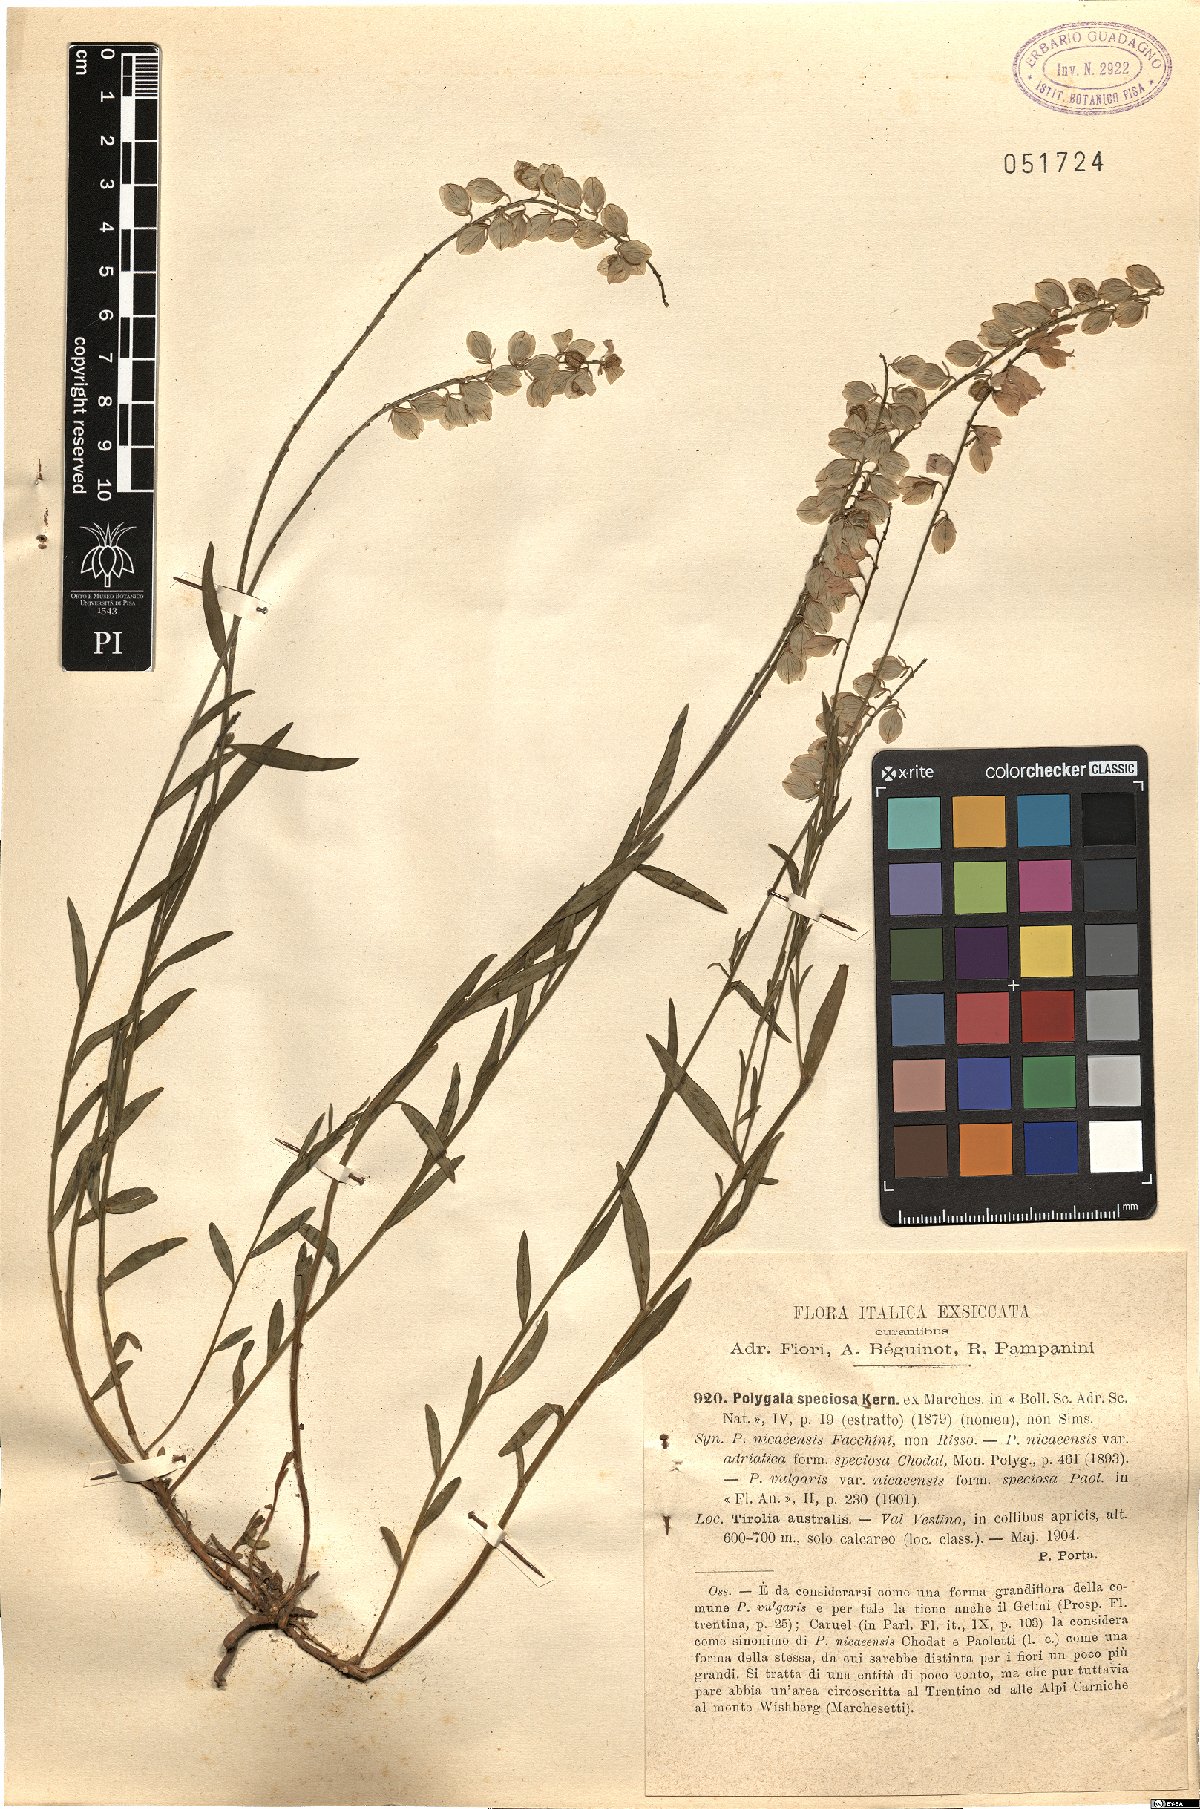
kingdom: Plantae
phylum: Tracheophyta
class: Magnoliopsida
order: Fabales
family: Polygalaceae
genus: Polygala
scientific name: Polygala virgata
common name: Milkwort
